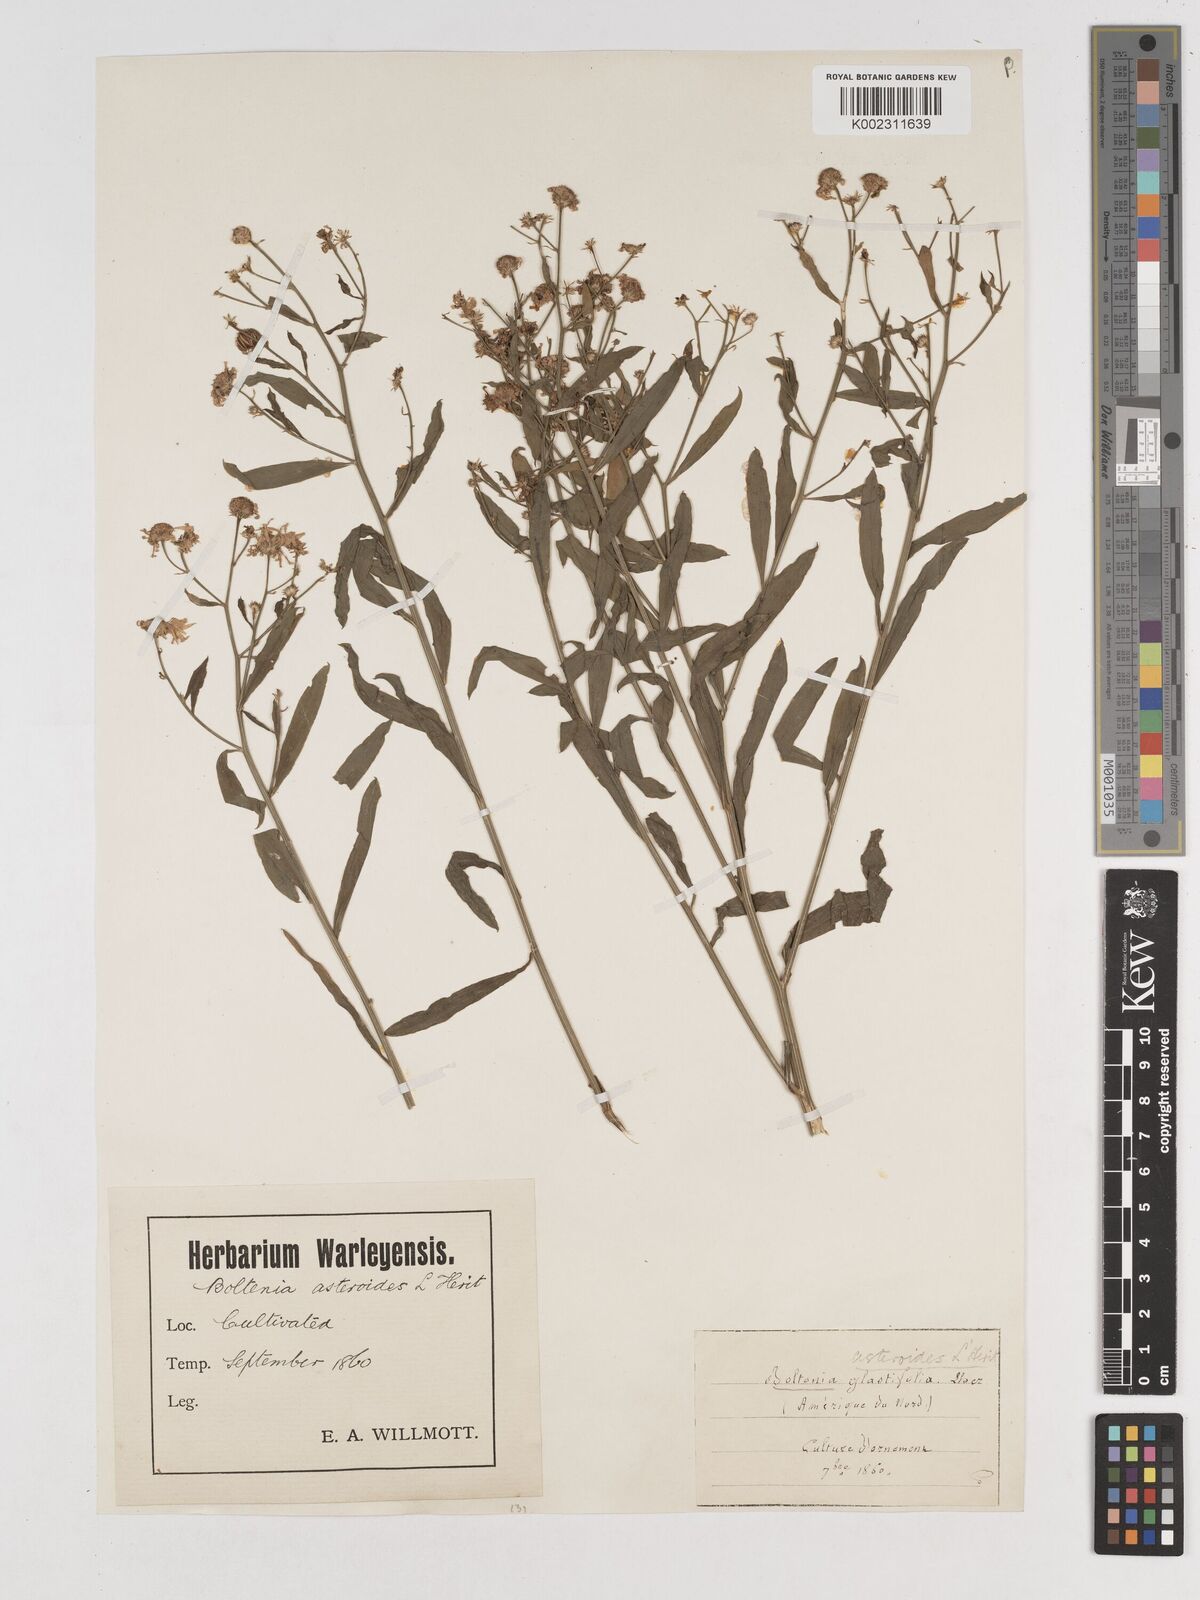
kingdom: Plantae
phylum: Tracheophyta
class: Magnoliopsida
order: Asterales
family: Asteraceae
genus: Boltonia
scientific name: Boltonia diffusa
